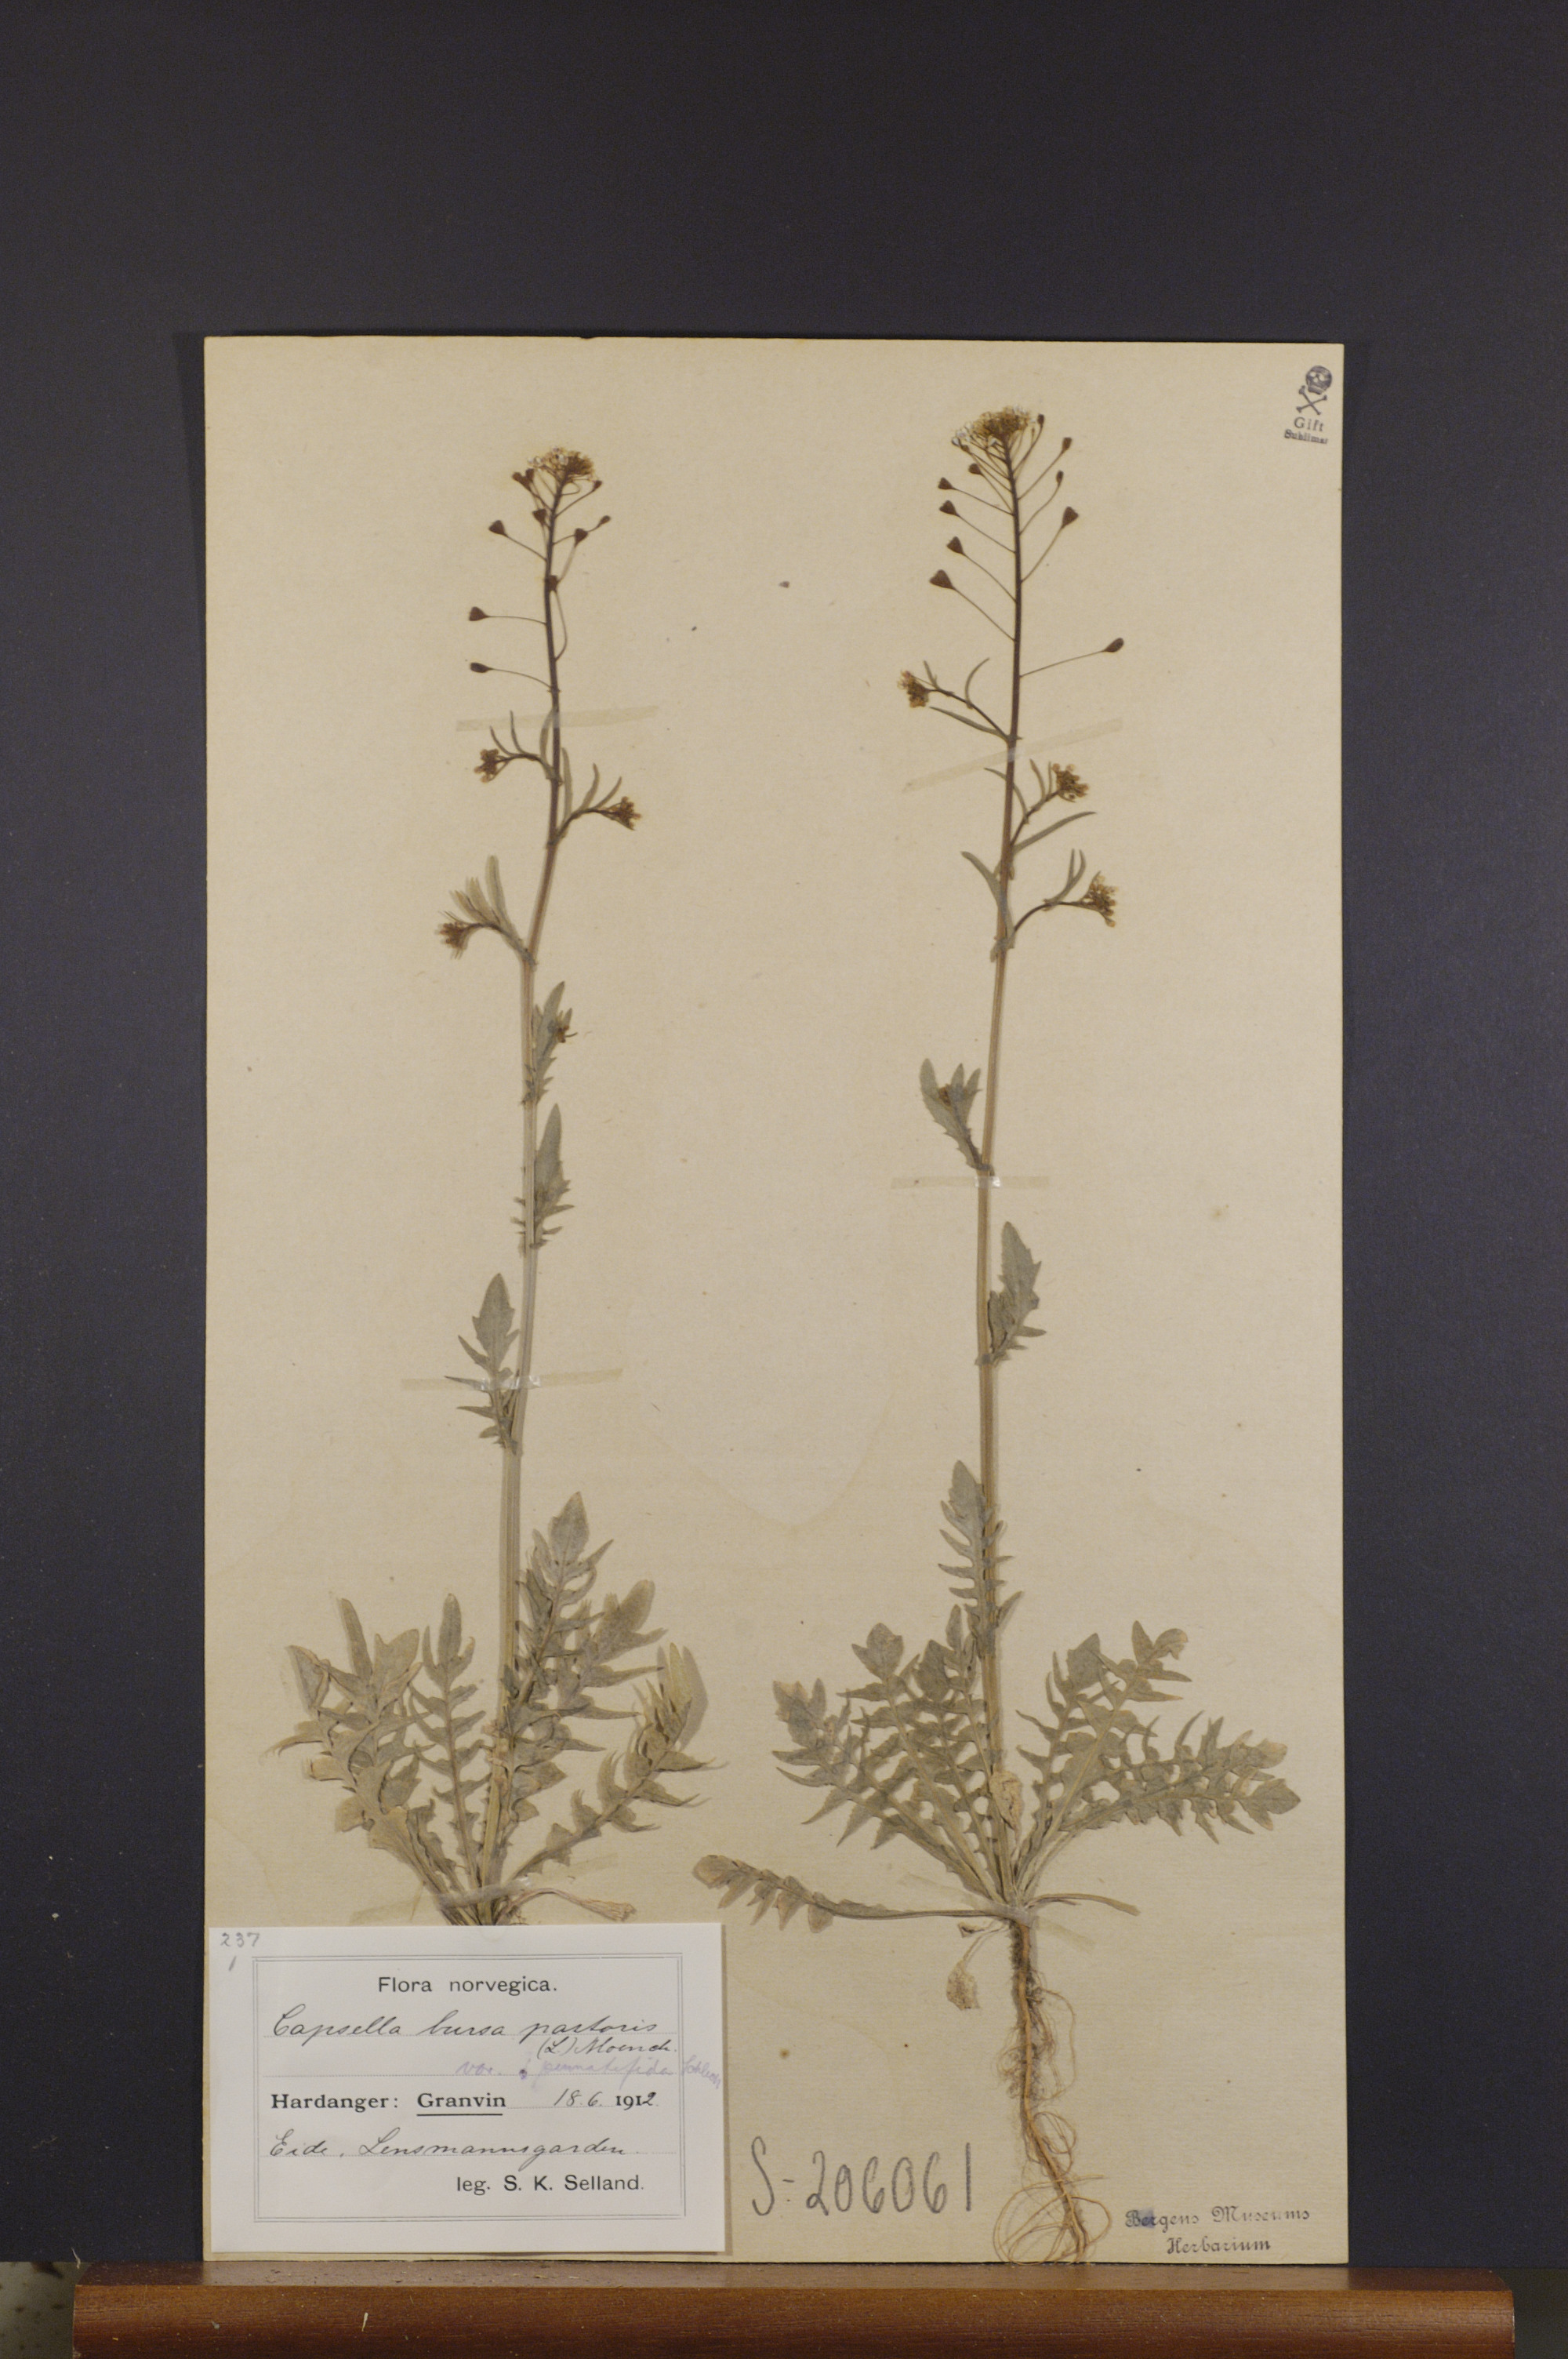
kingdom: Plantae
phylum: Tracheophyta
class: Magnoliopsida
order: Brassicales
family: Brassicaceae
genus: Capsella
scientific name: Capsella bursa-pastoris
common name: Shepherd's purse
